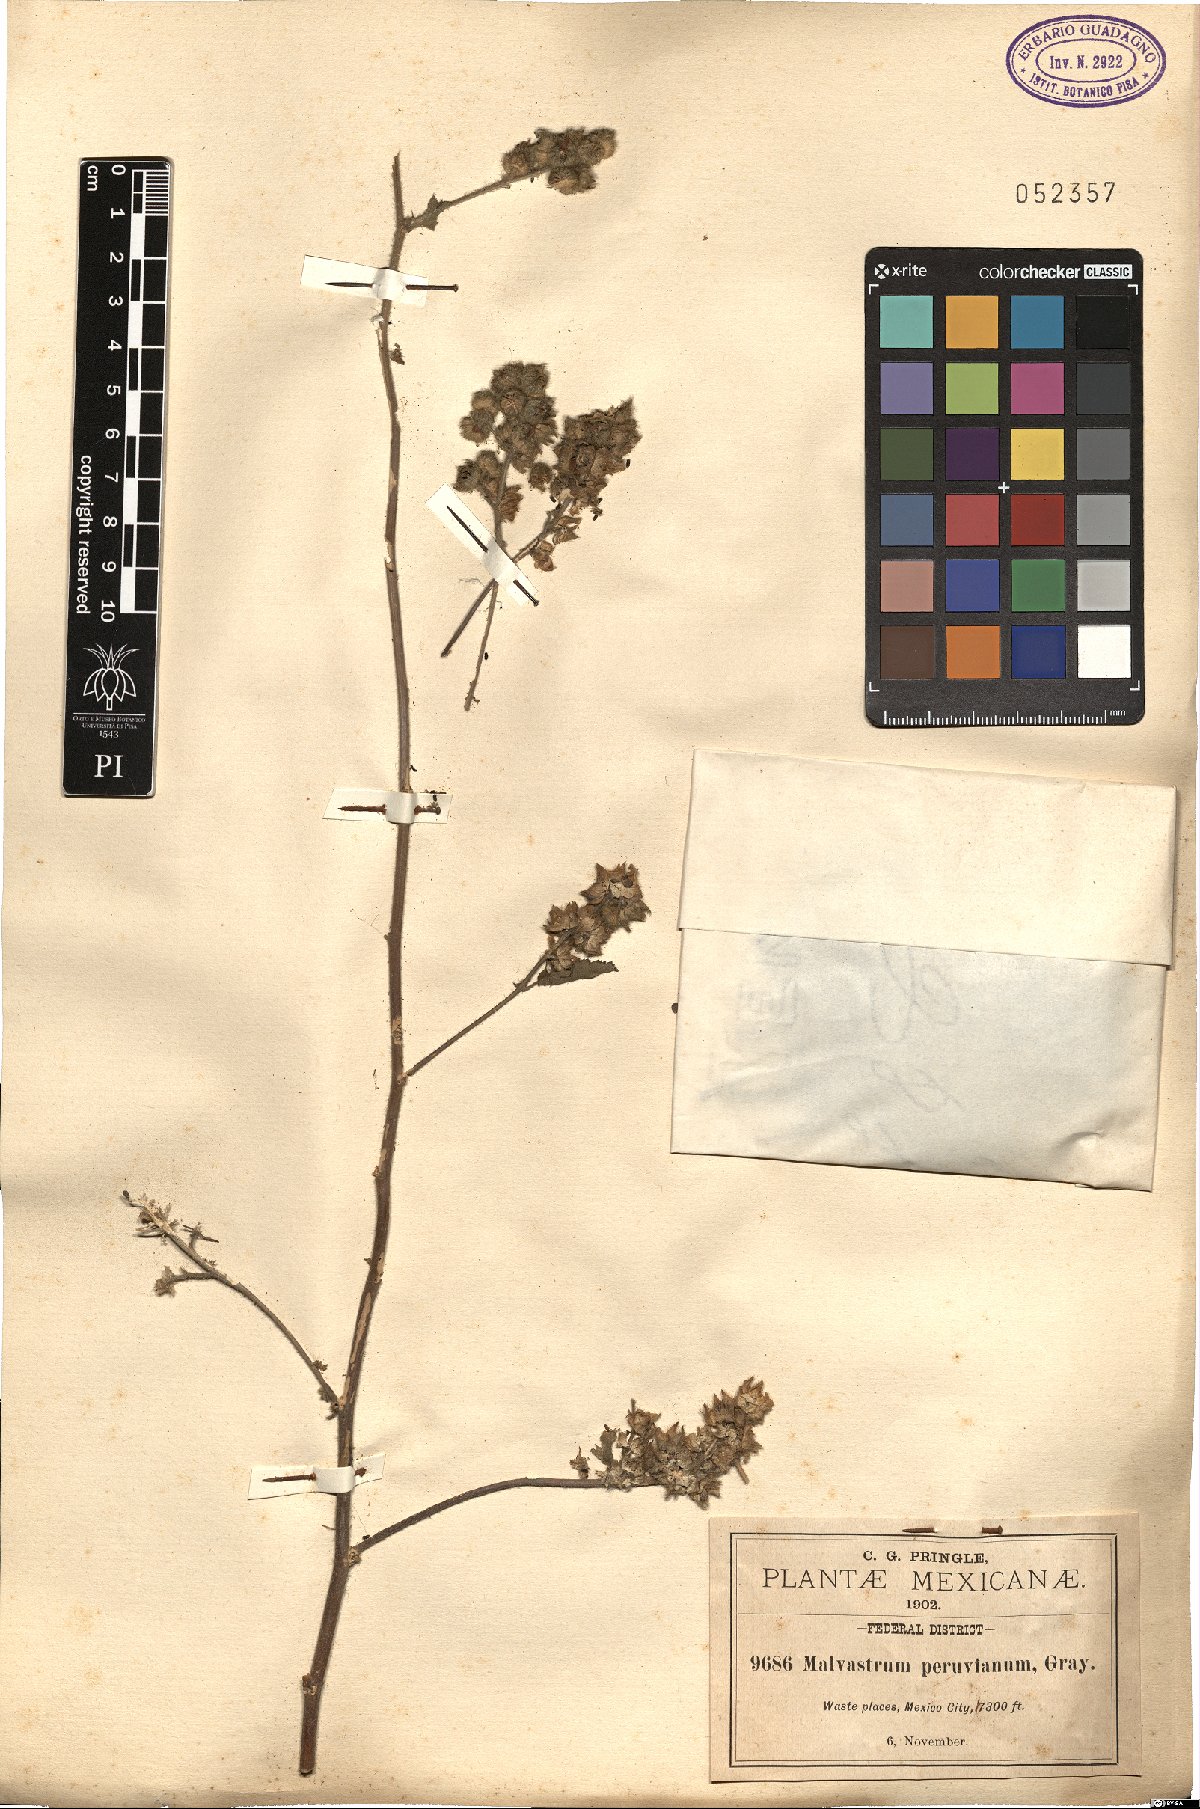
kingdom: Plantae
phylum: Tracheophyta
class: Magnoliopsida
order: Malvales
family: Malvaceae
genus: Fuertesimalva
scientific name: Fuertesimalva peruviana
